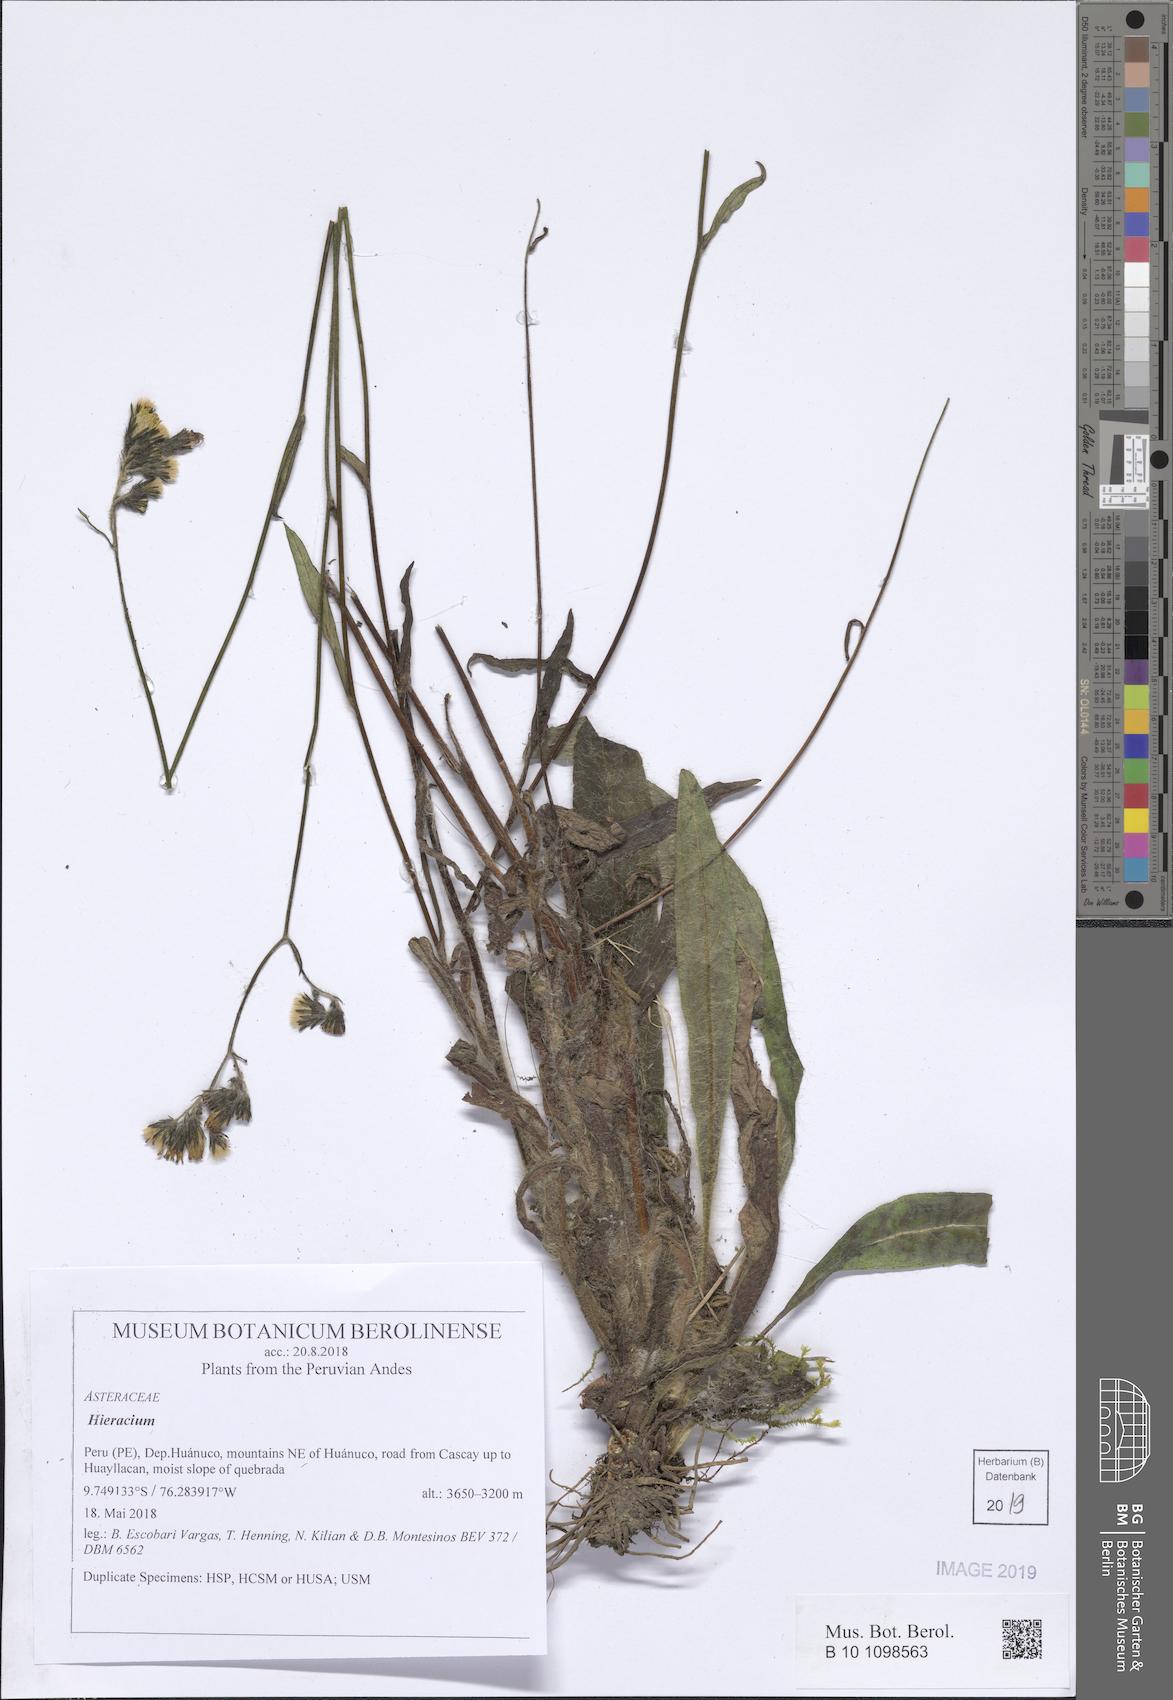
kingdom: Plantae
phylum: Tracheophyta
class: Magnoliopsida
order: Asterales
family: Asteraceae
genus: Hieracium
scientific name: Hieracium
